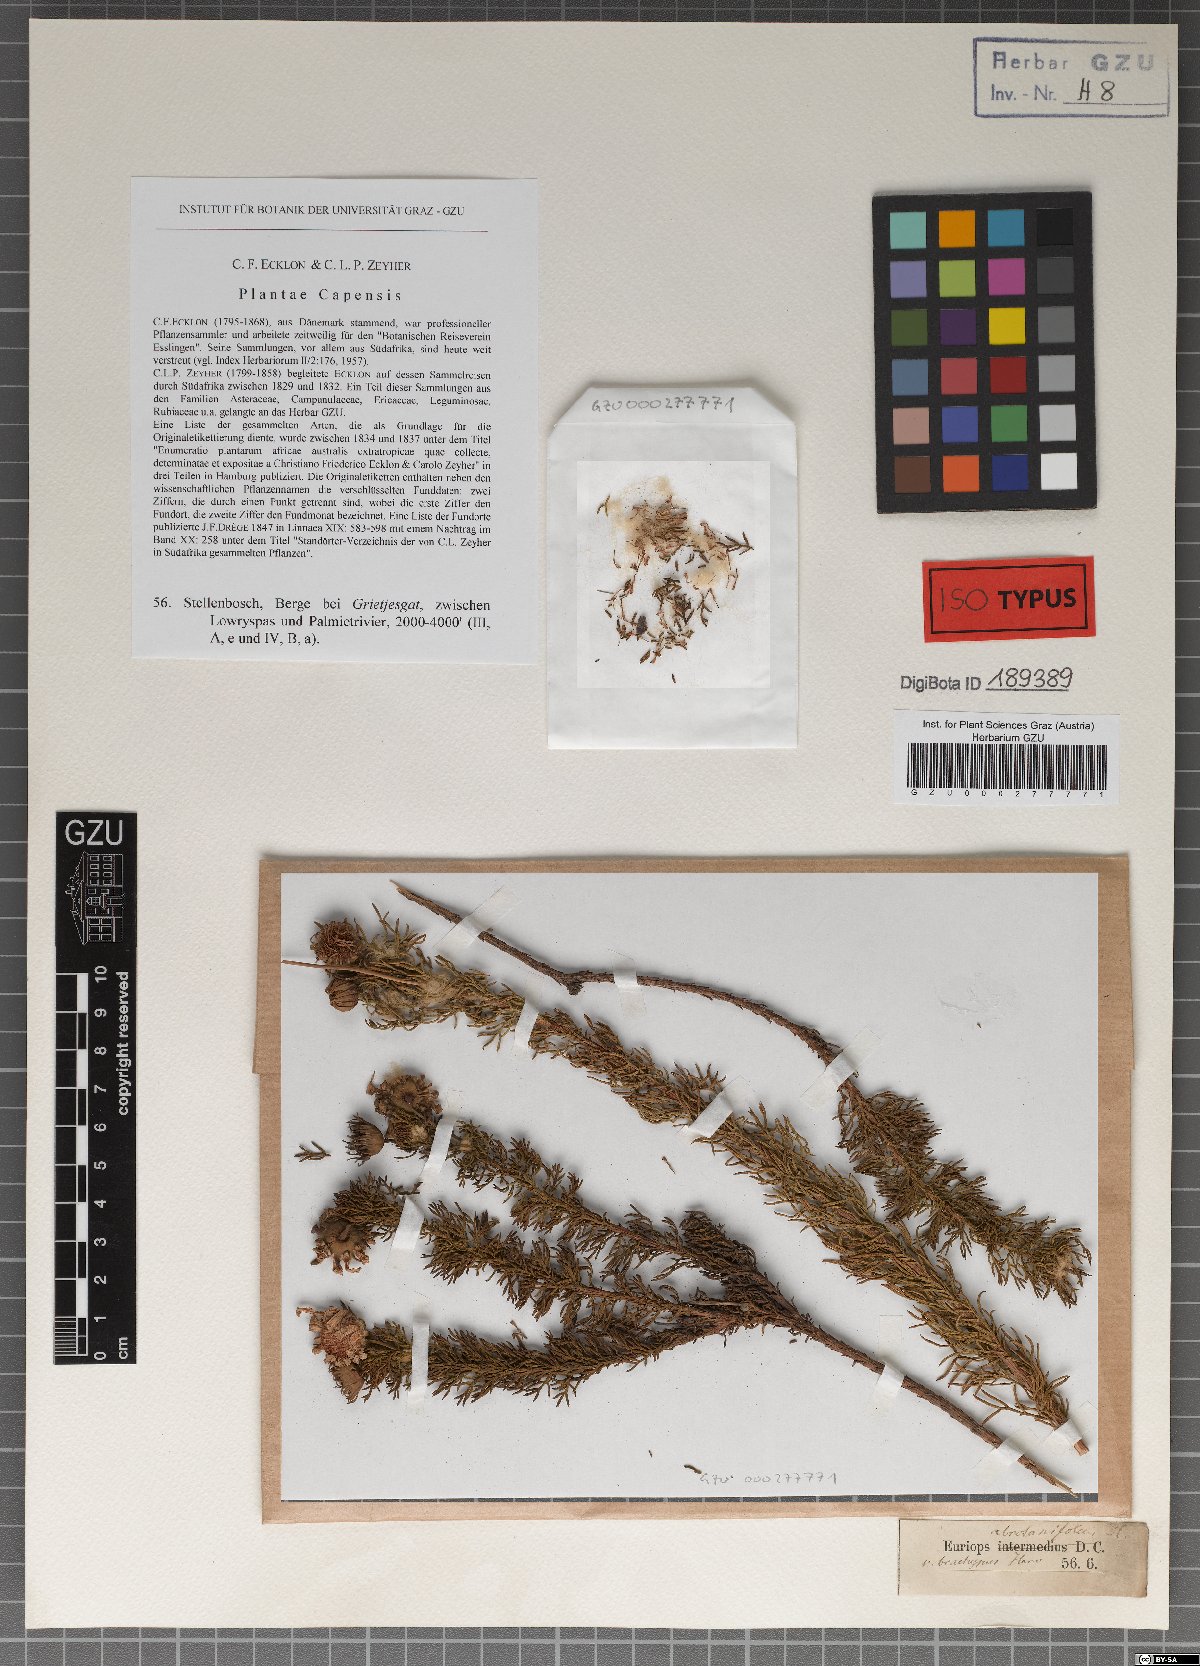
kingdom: Plantae
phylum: Tracheophyta
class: Magnoliopsida
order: Asterales
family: Asteraceae
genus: Euryops
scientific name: Euryops abrotanifolius
